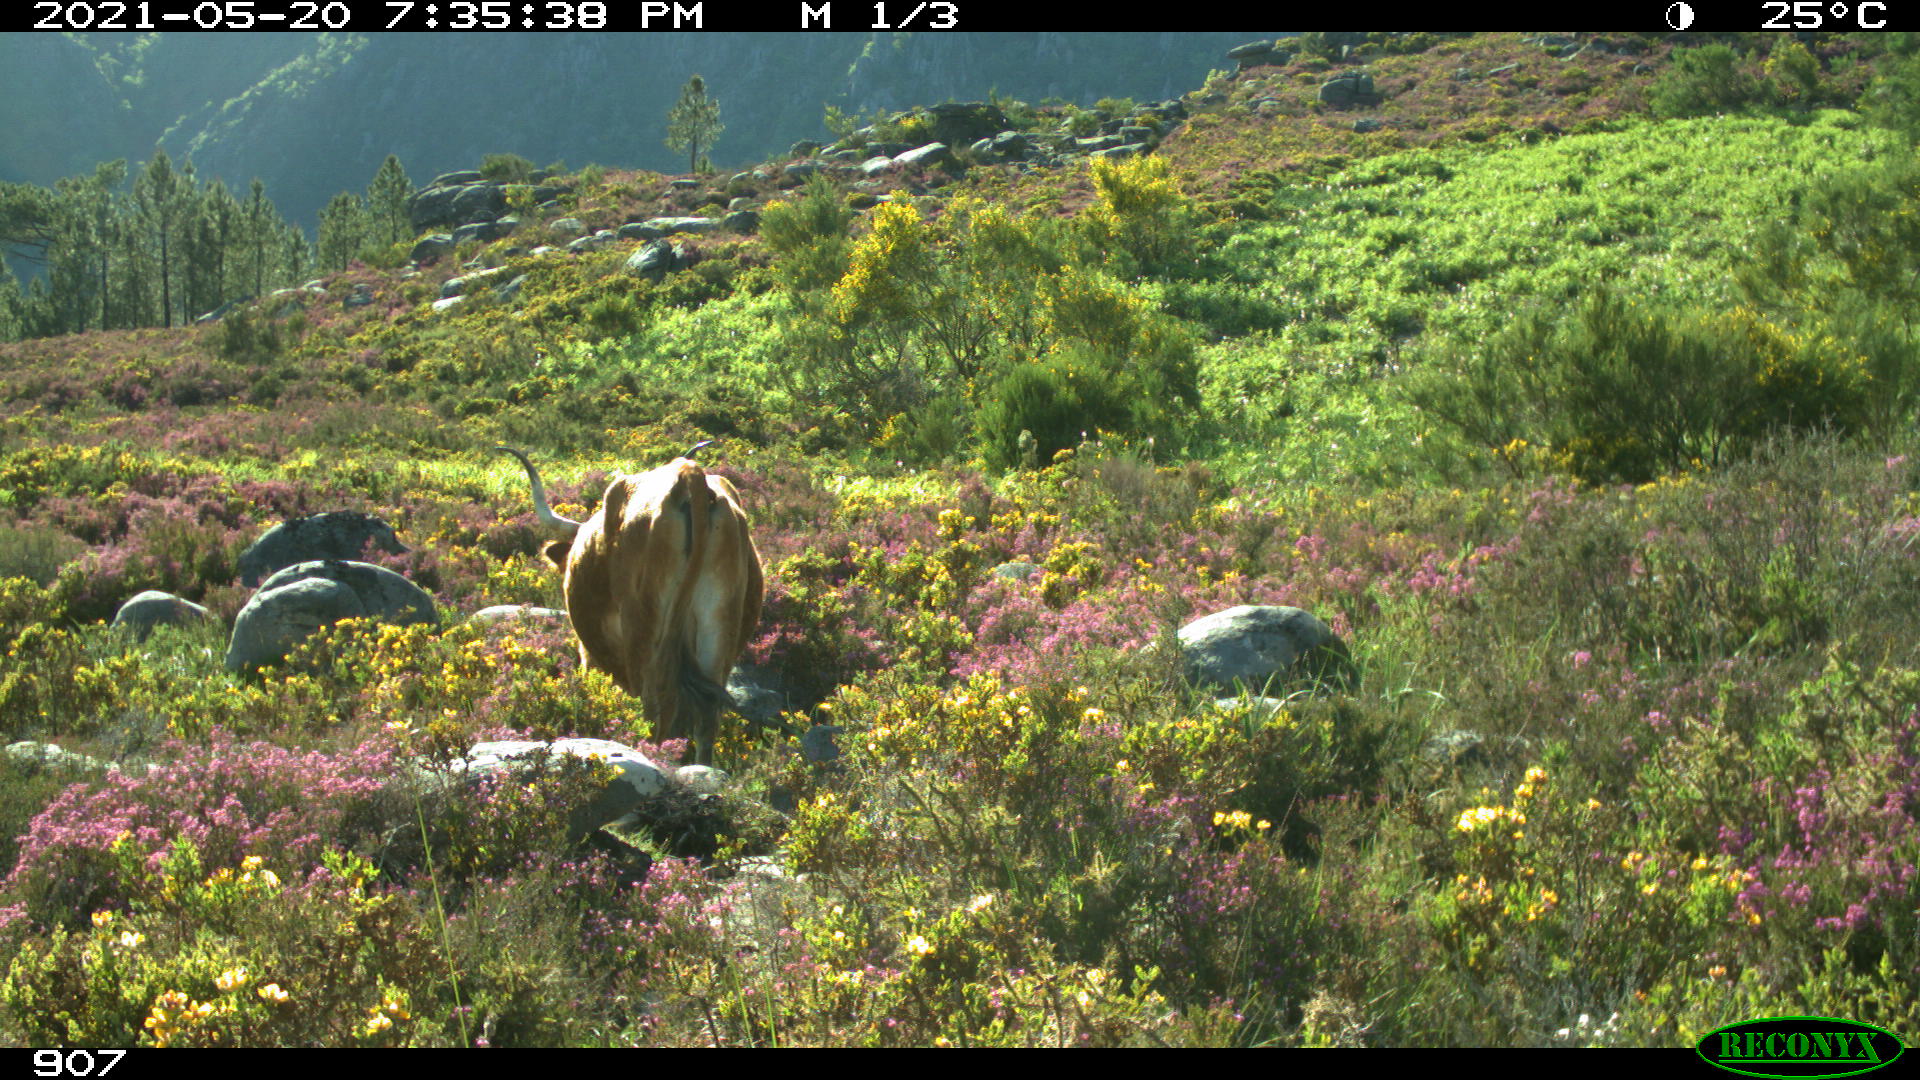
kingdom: Animalia
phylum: Chordata
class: Mammalia
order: Artiodactyla
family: Bovidae
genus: Bos
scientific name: Bos taurus
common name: Domesticated cattle
